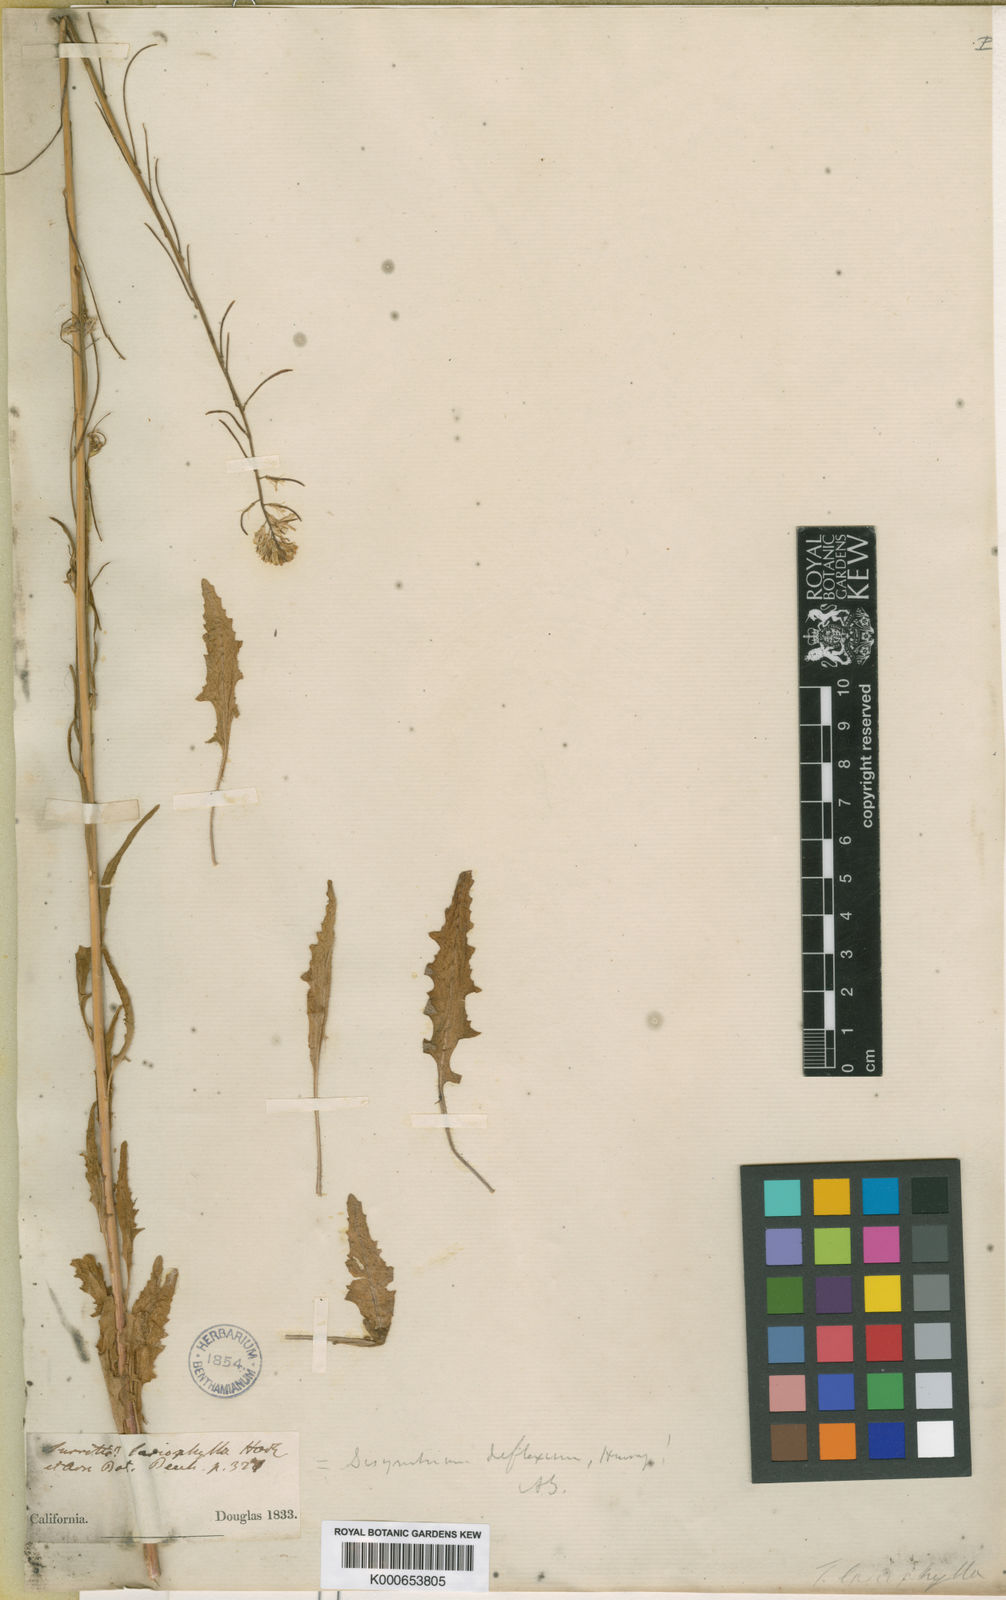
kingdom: Plantae
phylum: Tracheophyta
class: Magnoliopsida
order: Brassicales
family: Brassicaceae
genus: Streptanthus
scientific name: Streptanthus lasiophyllus
